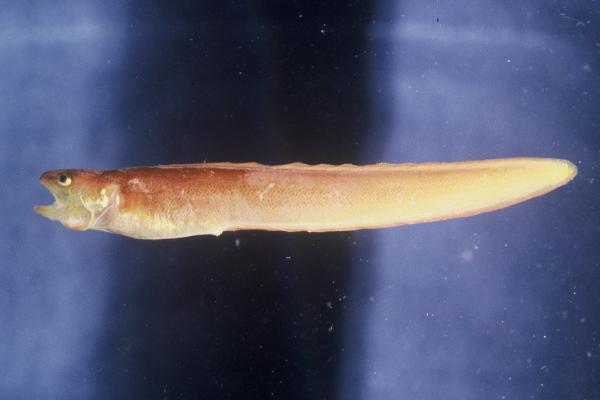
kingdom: Animalia
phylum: Chordata
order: Ophidiiformes
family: Ophidiidae
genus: Parophidion
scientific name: Parophidion vassali
